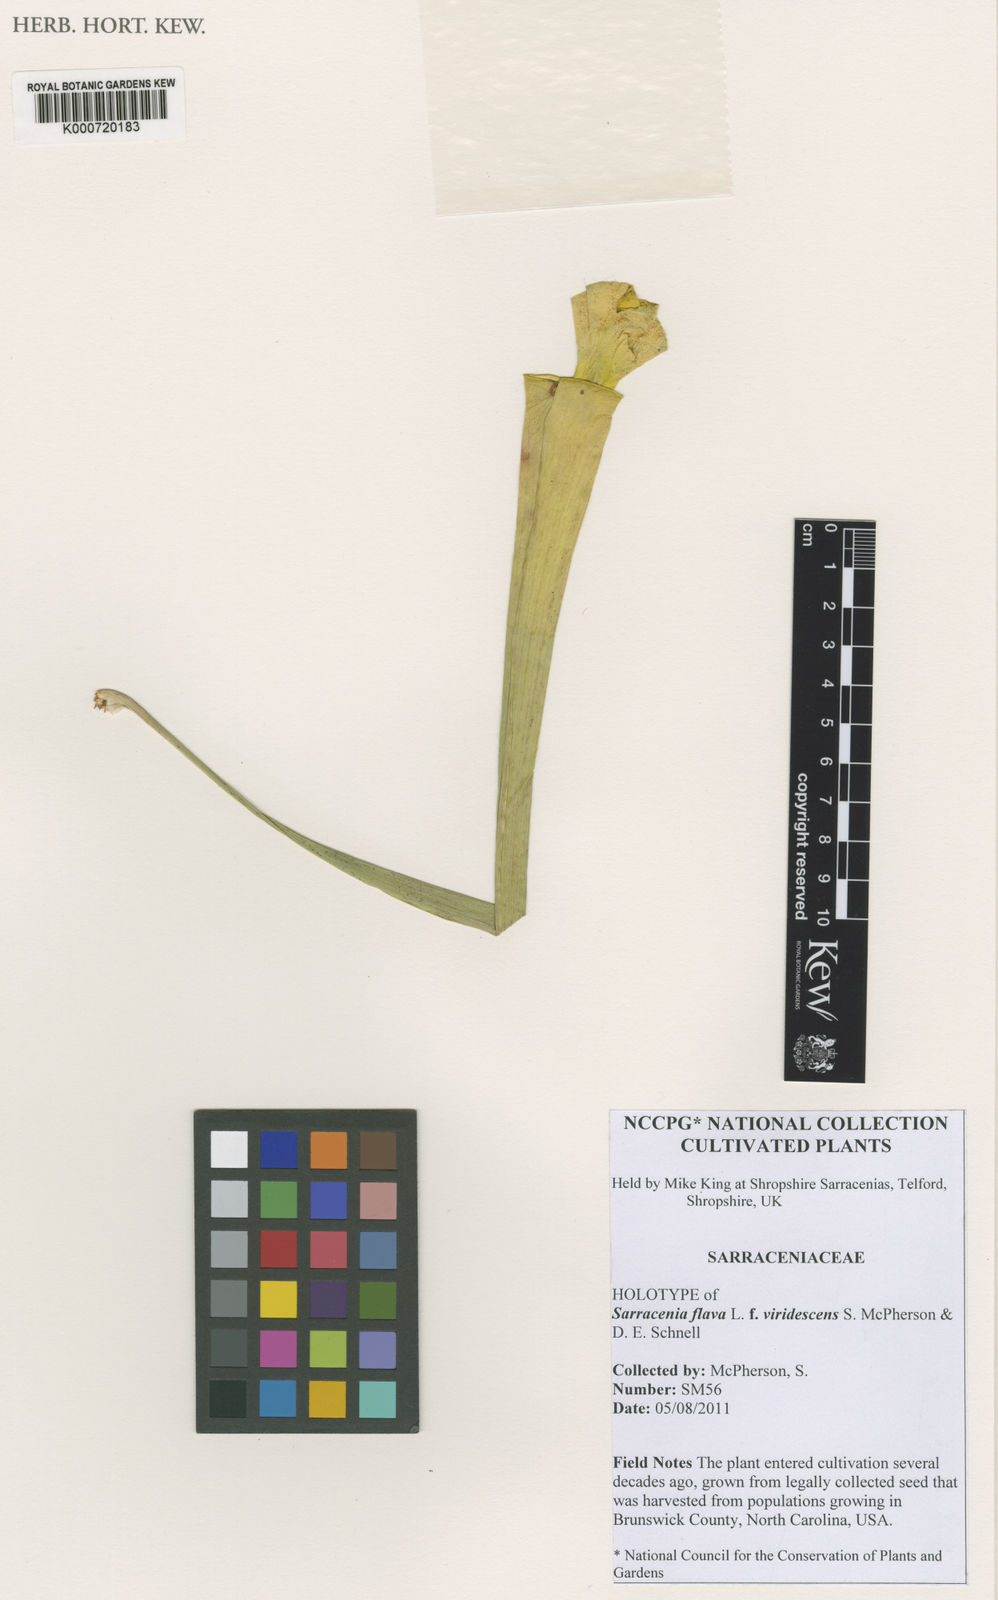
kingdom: Plantae
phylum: Tracheophyta
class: Magnoliopsida
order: Ericales
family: Sarraceniaceae
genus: Sarracenia
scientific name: Sarracenia flava
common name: Trumpets
